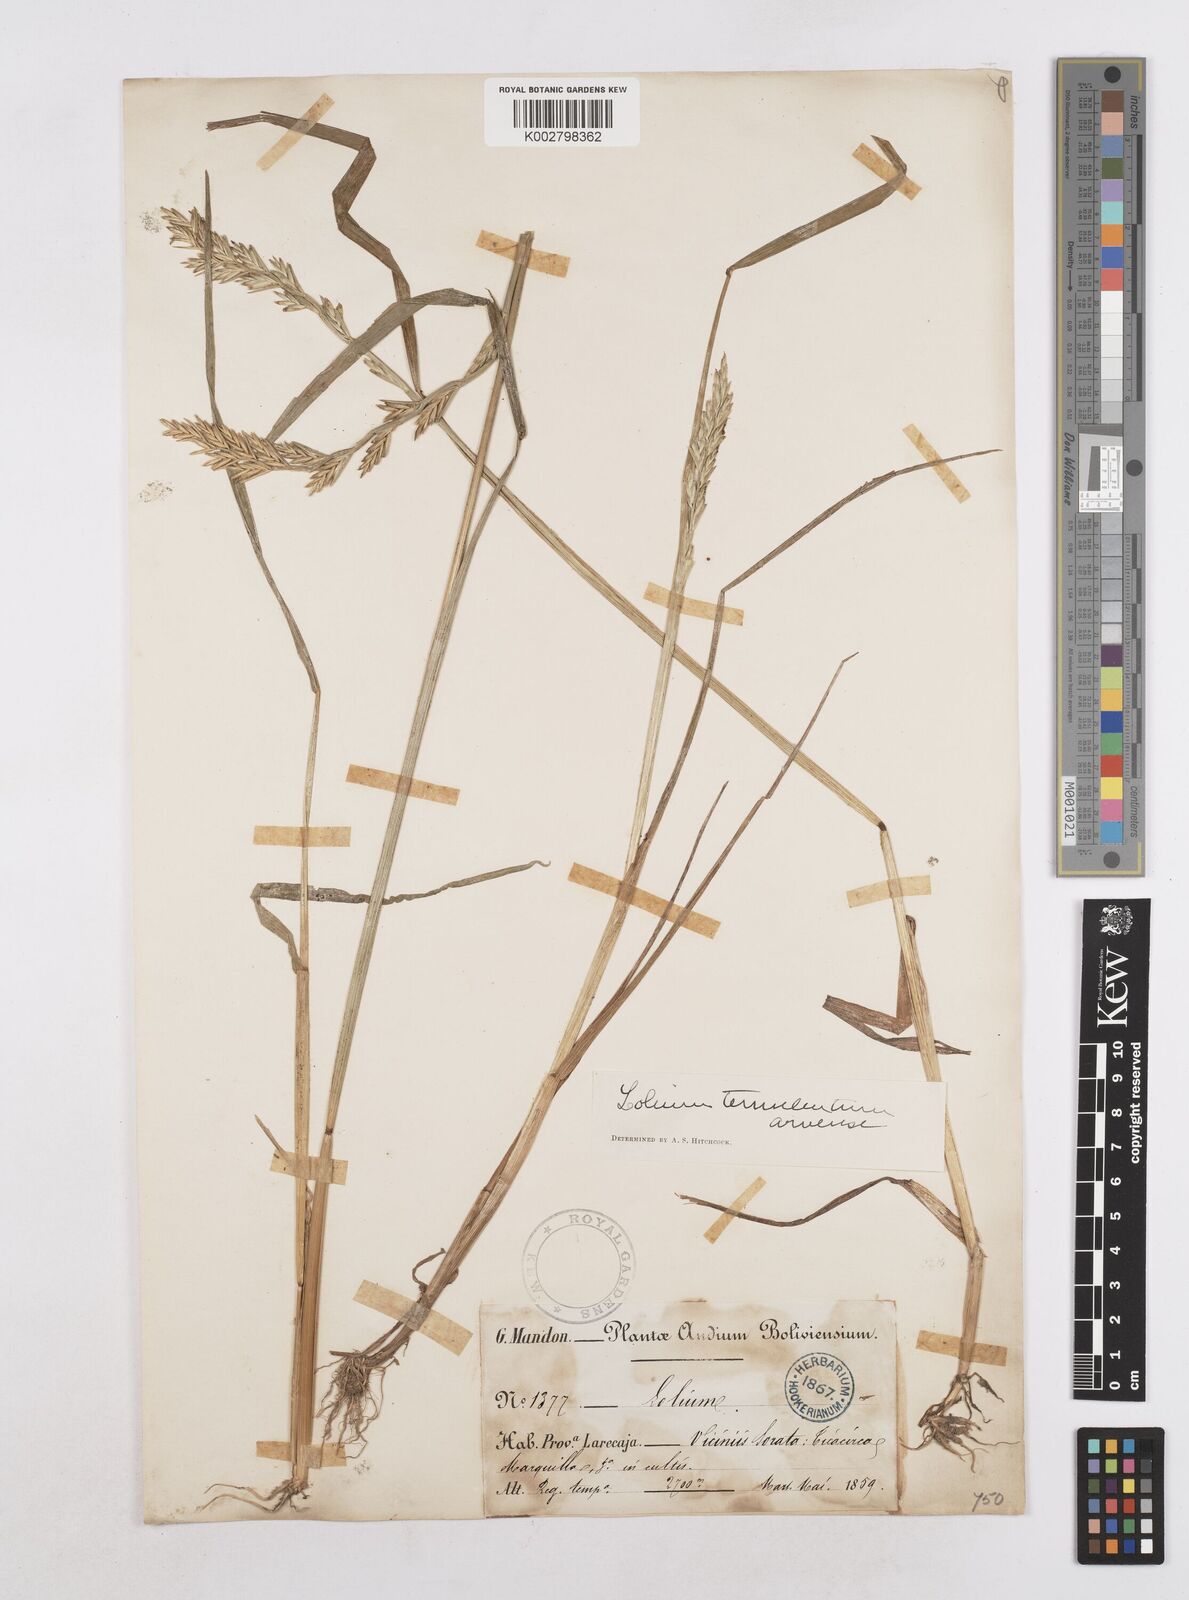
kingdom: Plantae
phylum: Tracheophyta
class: Liliopsida
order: Poales
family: Poaceae
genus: Lolium
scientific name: Lolium temulentum
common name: Darnel
